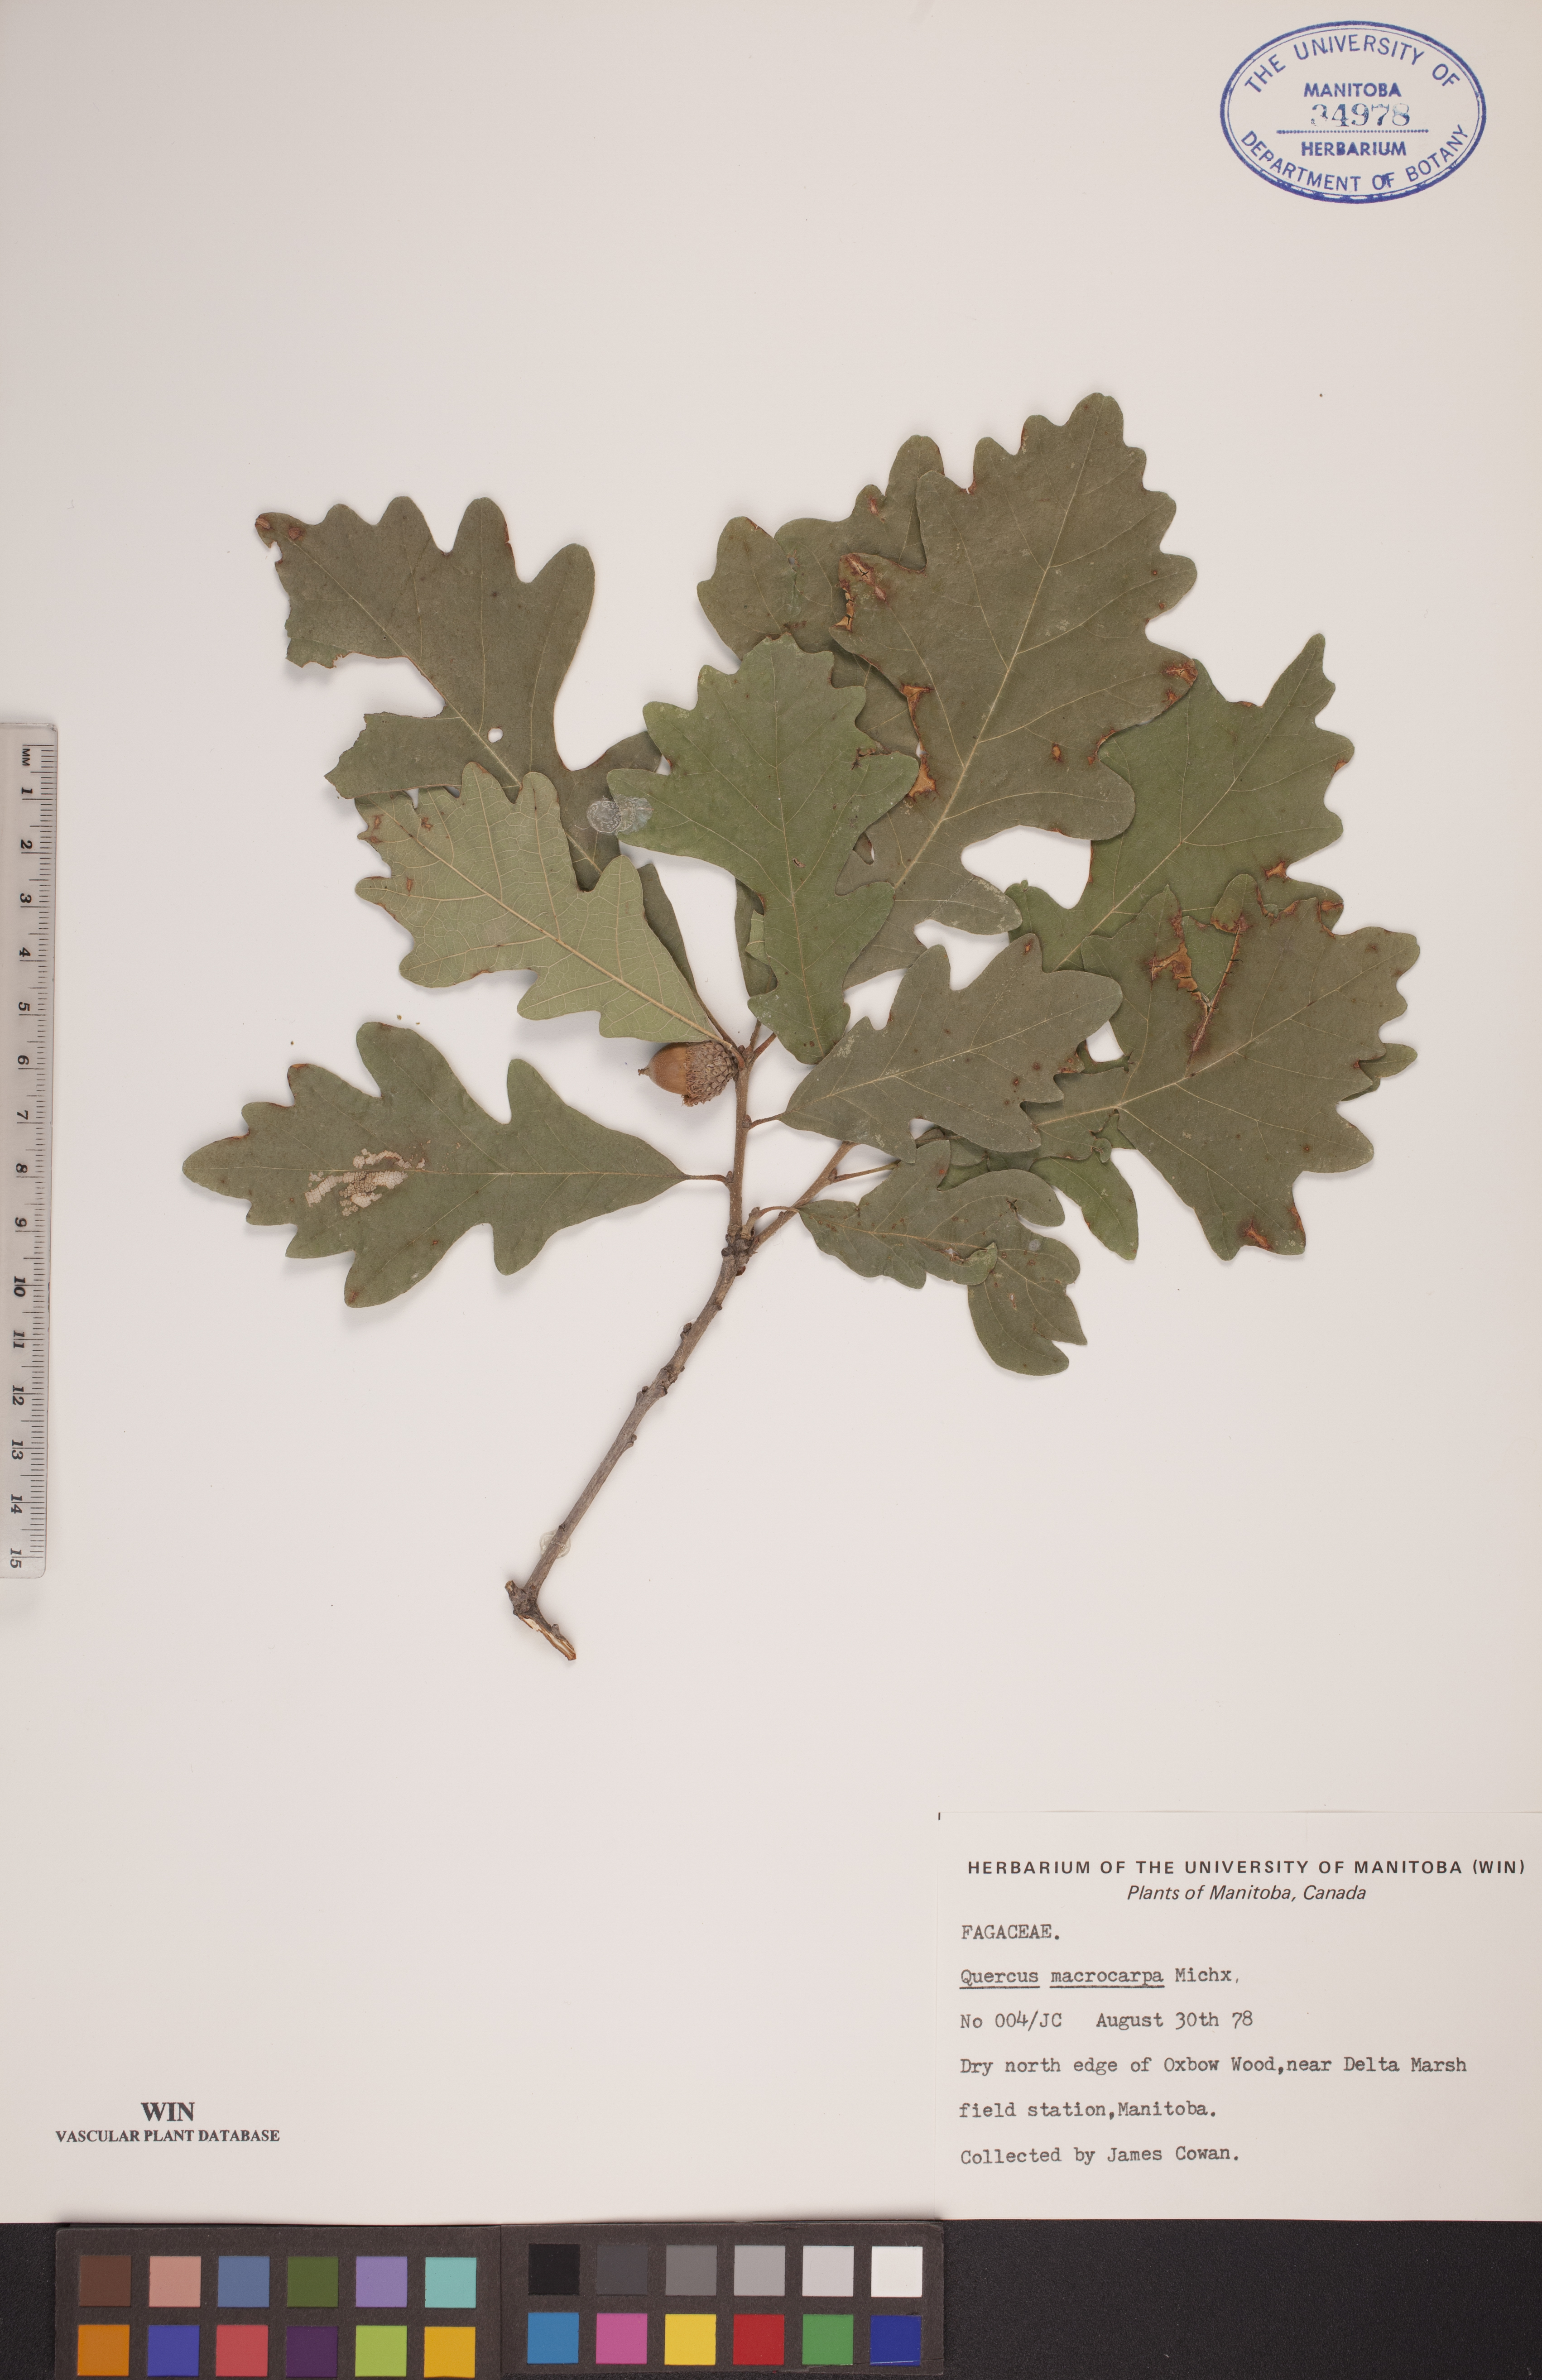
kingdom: Plantae
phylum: Tracheophyta
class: Magnoliopsida
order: Fagales
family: Fagaceae
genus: Quercus
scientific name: Quercus macrocarpa
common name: Bur oak
